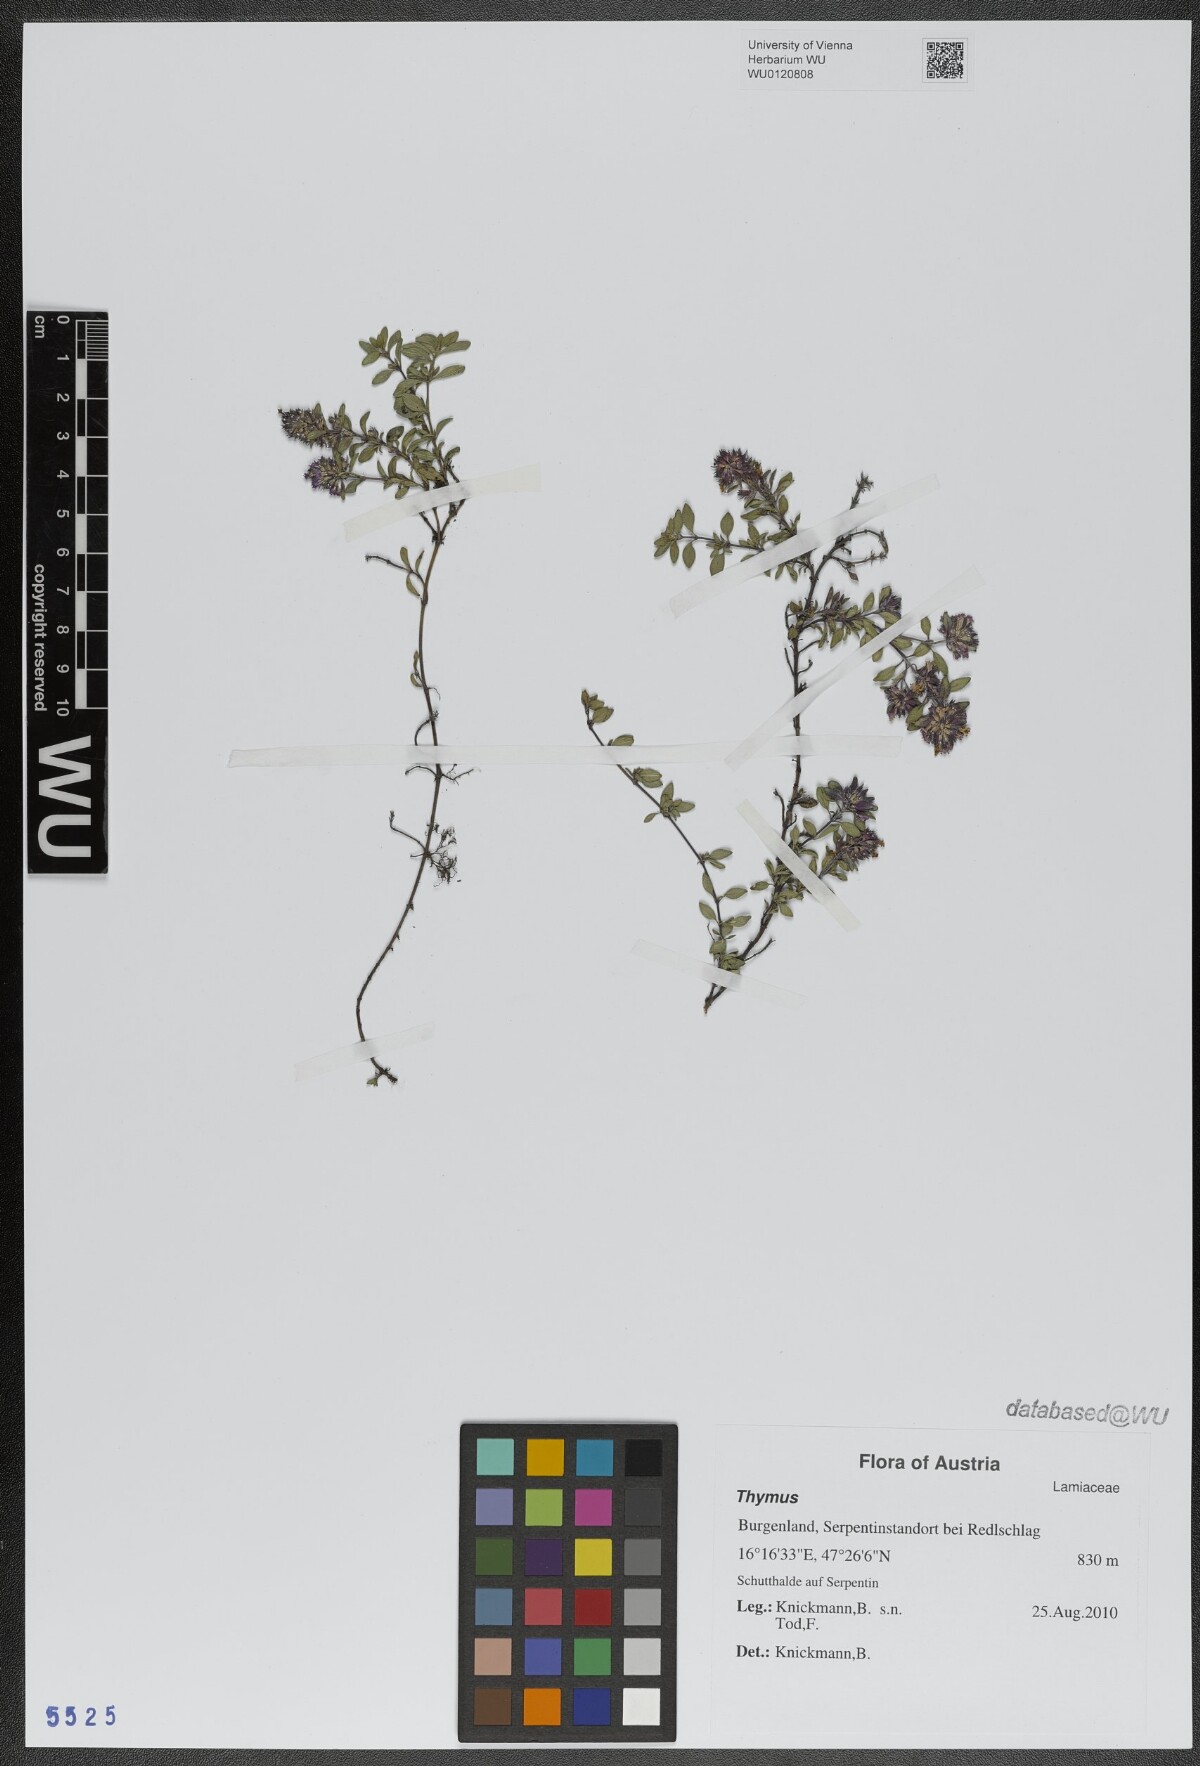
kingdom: Plantae
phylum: Tracheophyta
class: Magnoliopsida
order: Lamiales
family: Lamiaceae
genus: Thymus
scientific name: Thymus
